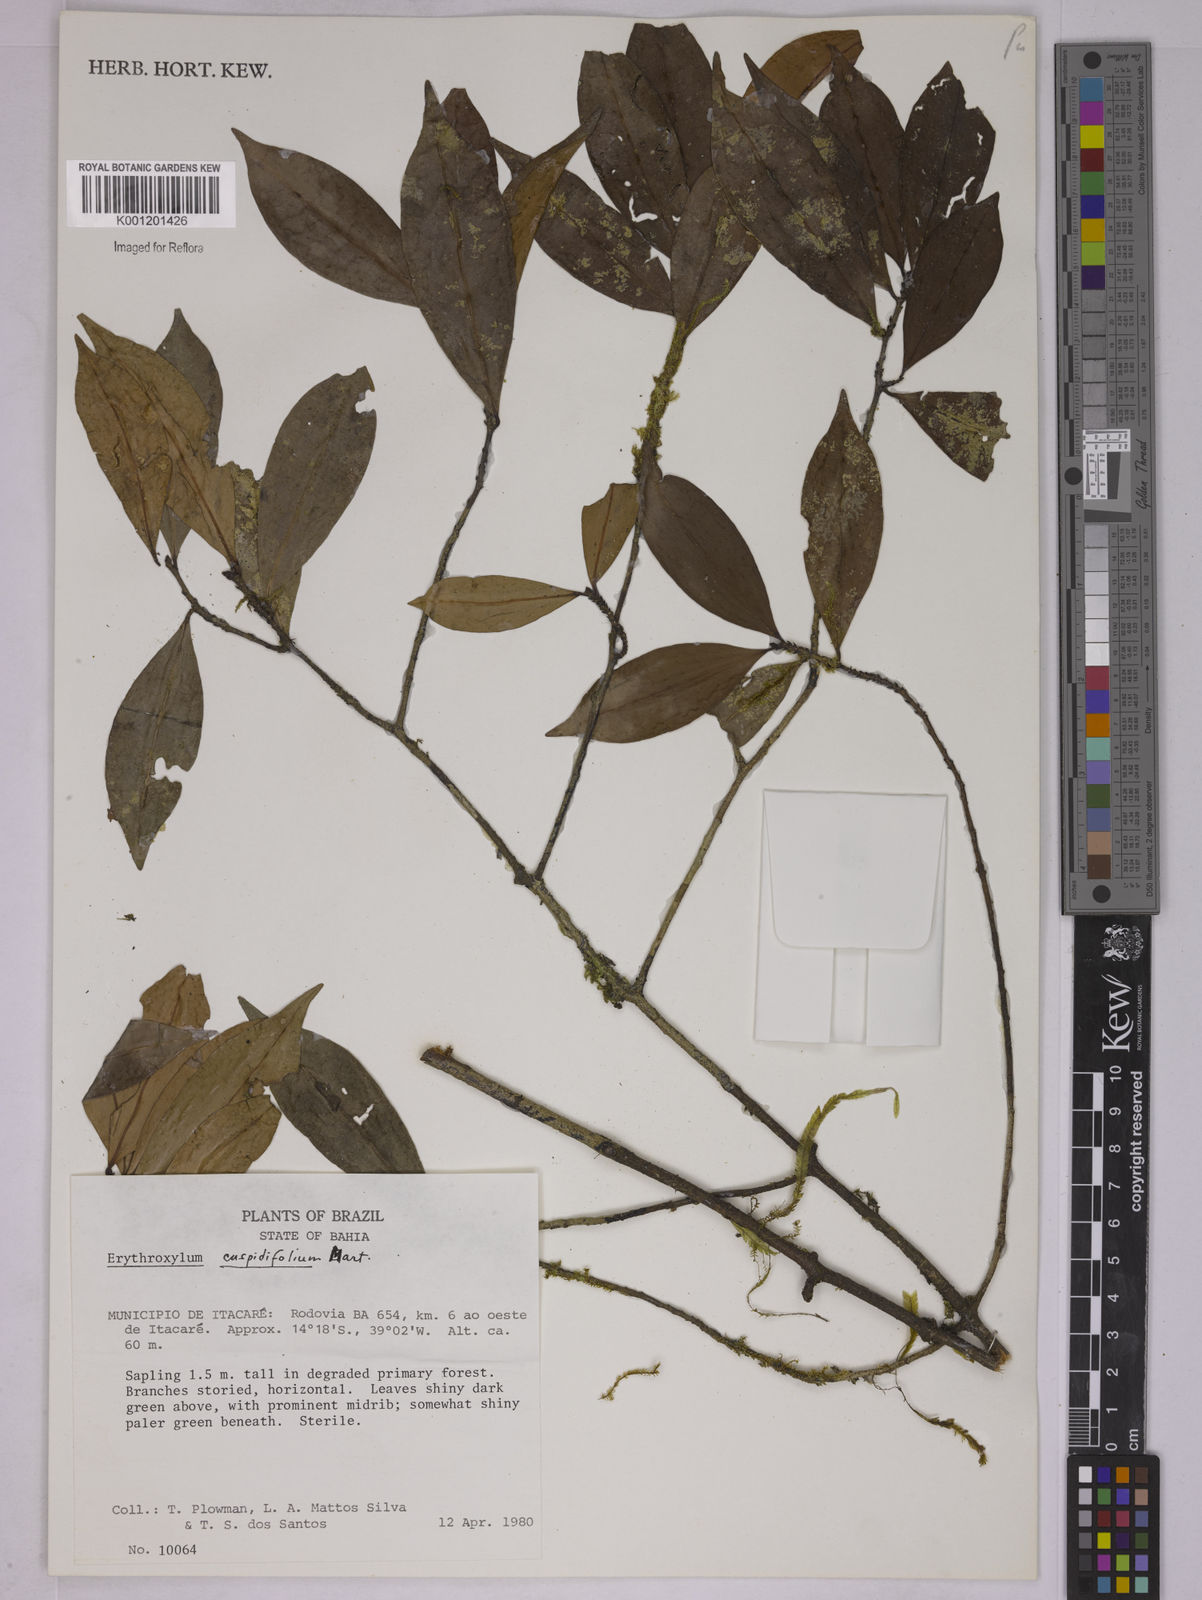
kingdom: Plantae
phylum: Tracheophyta
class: Magnoliopsida
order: Malpighiales
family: Erythroxylaceae
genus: Erythroxylum
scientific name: Erythroxylum cuspidifolium
